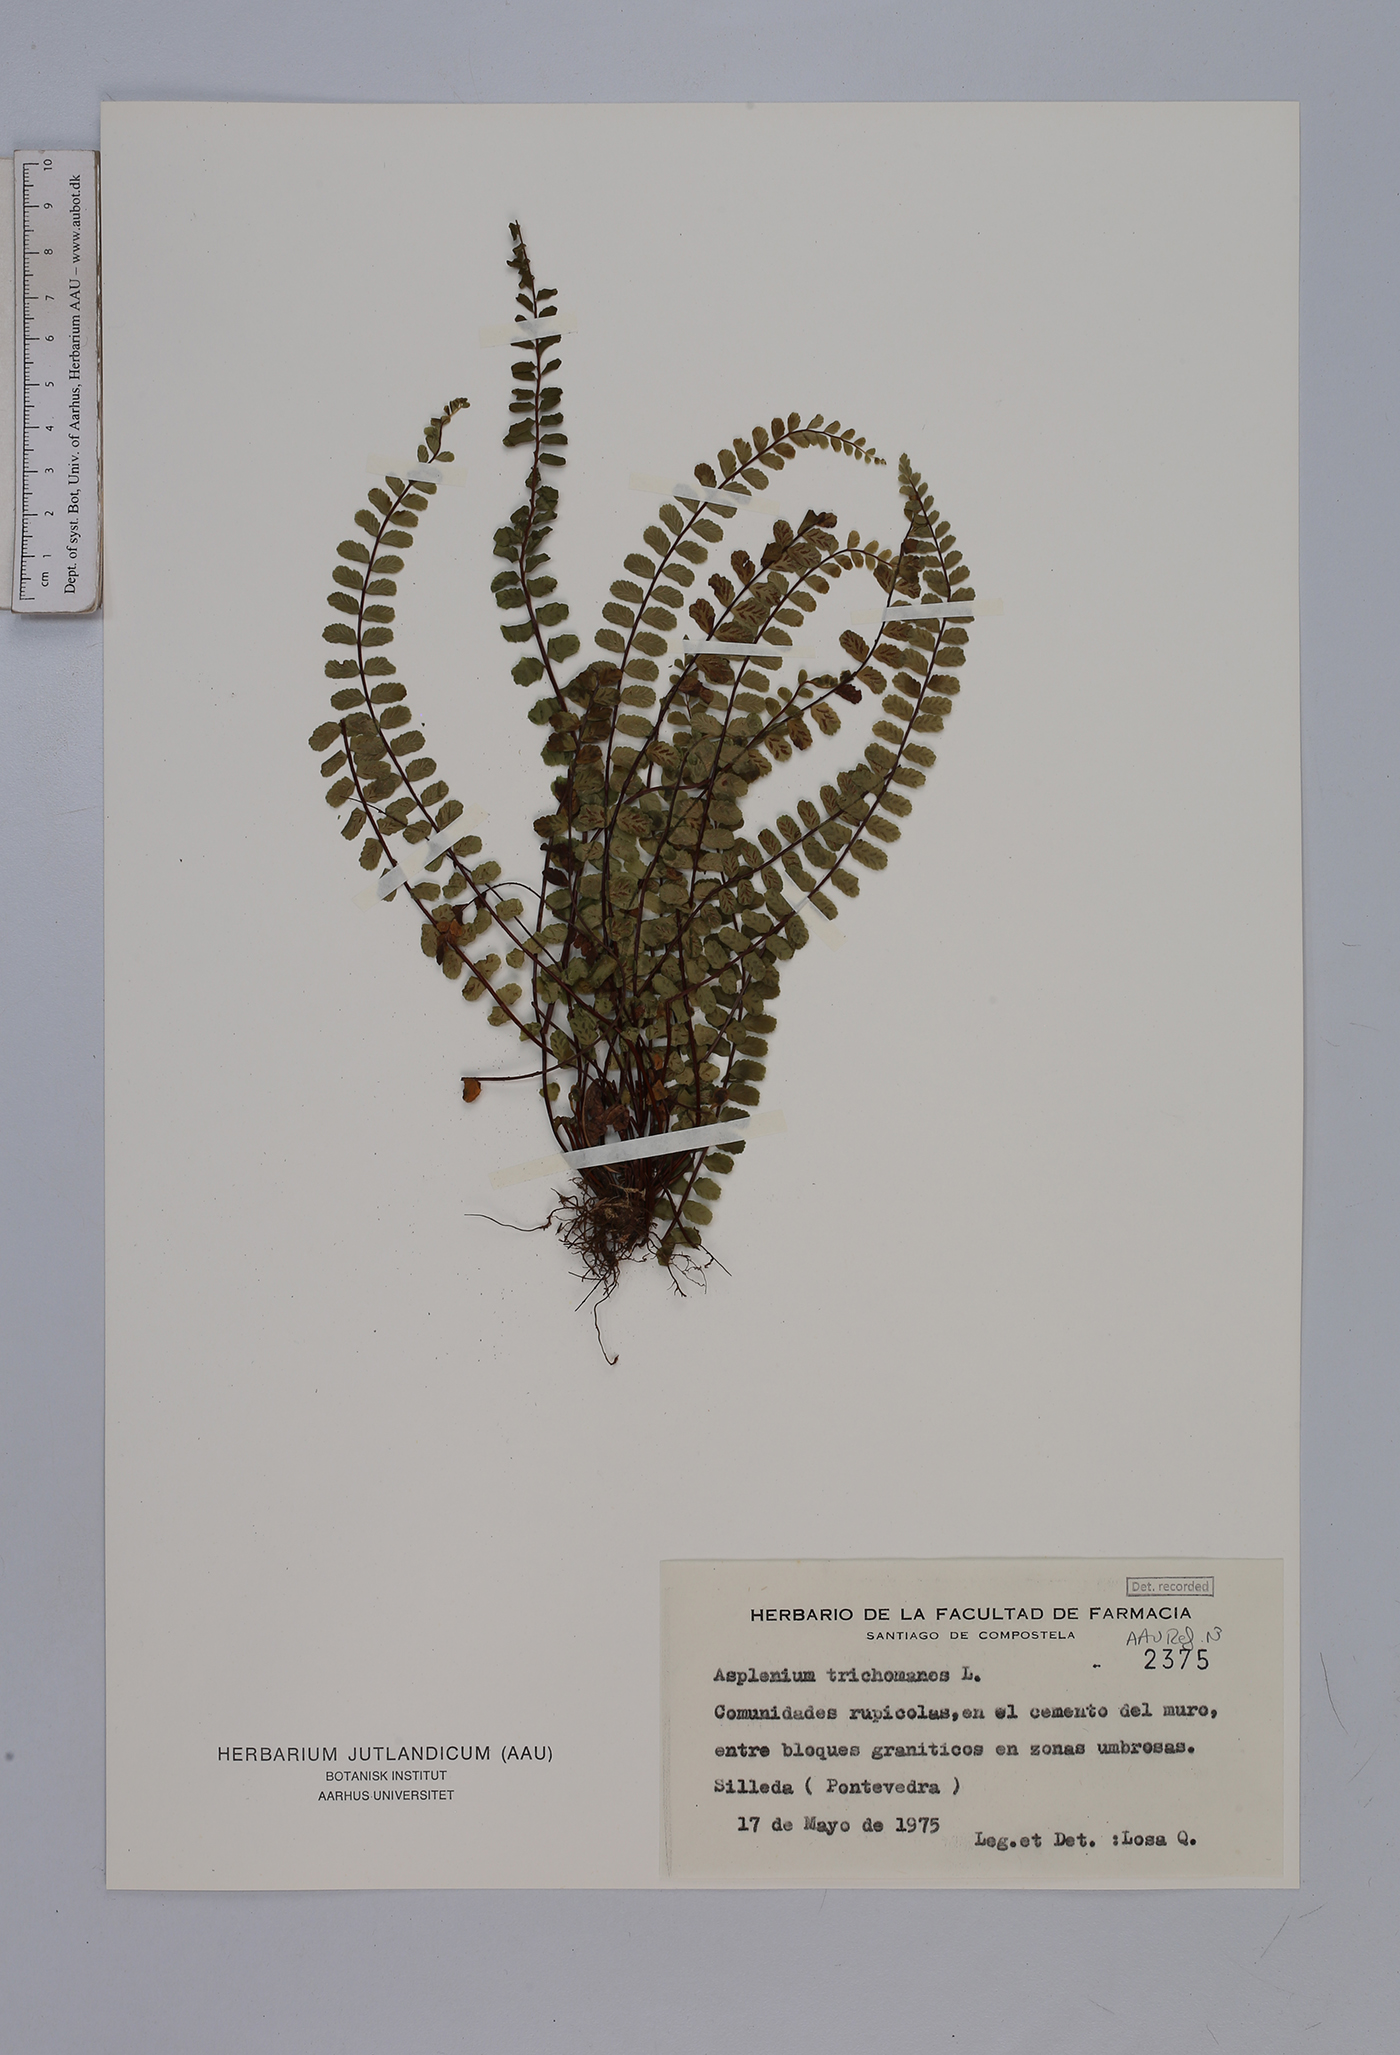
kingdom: Plantae
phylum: Tracheophyta
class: Polypodiopsida
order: Polypodiales
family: Aspleniaceae
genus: Asplenium
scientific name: Asplenium trichomanes
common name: Maidenhair spleenwort
